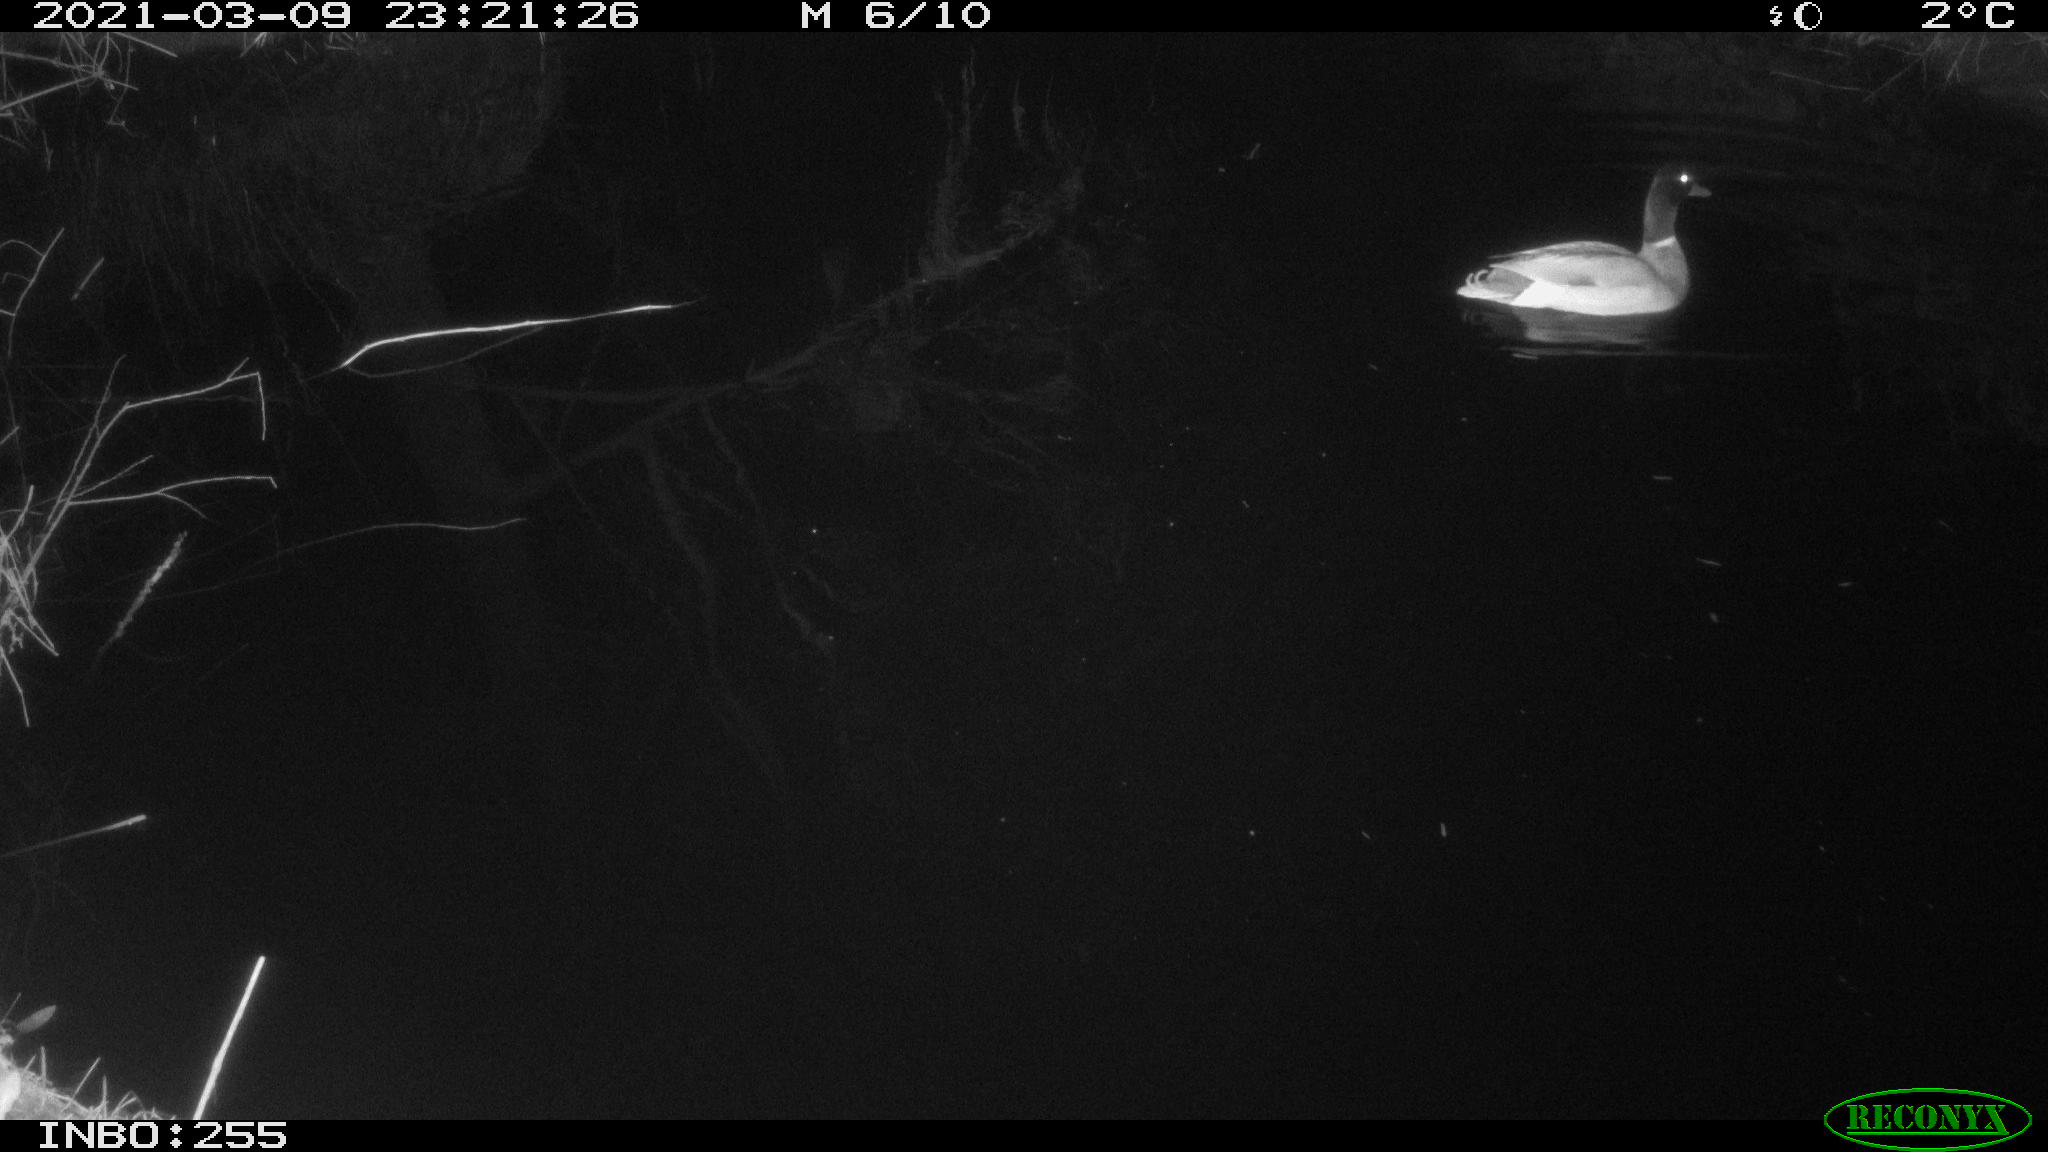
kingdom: Animalia
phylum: Chordata
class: Aves
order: Anseriformes
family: Anatidae
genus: Anas
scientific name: Anas platyrhynchos
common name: Mallard
